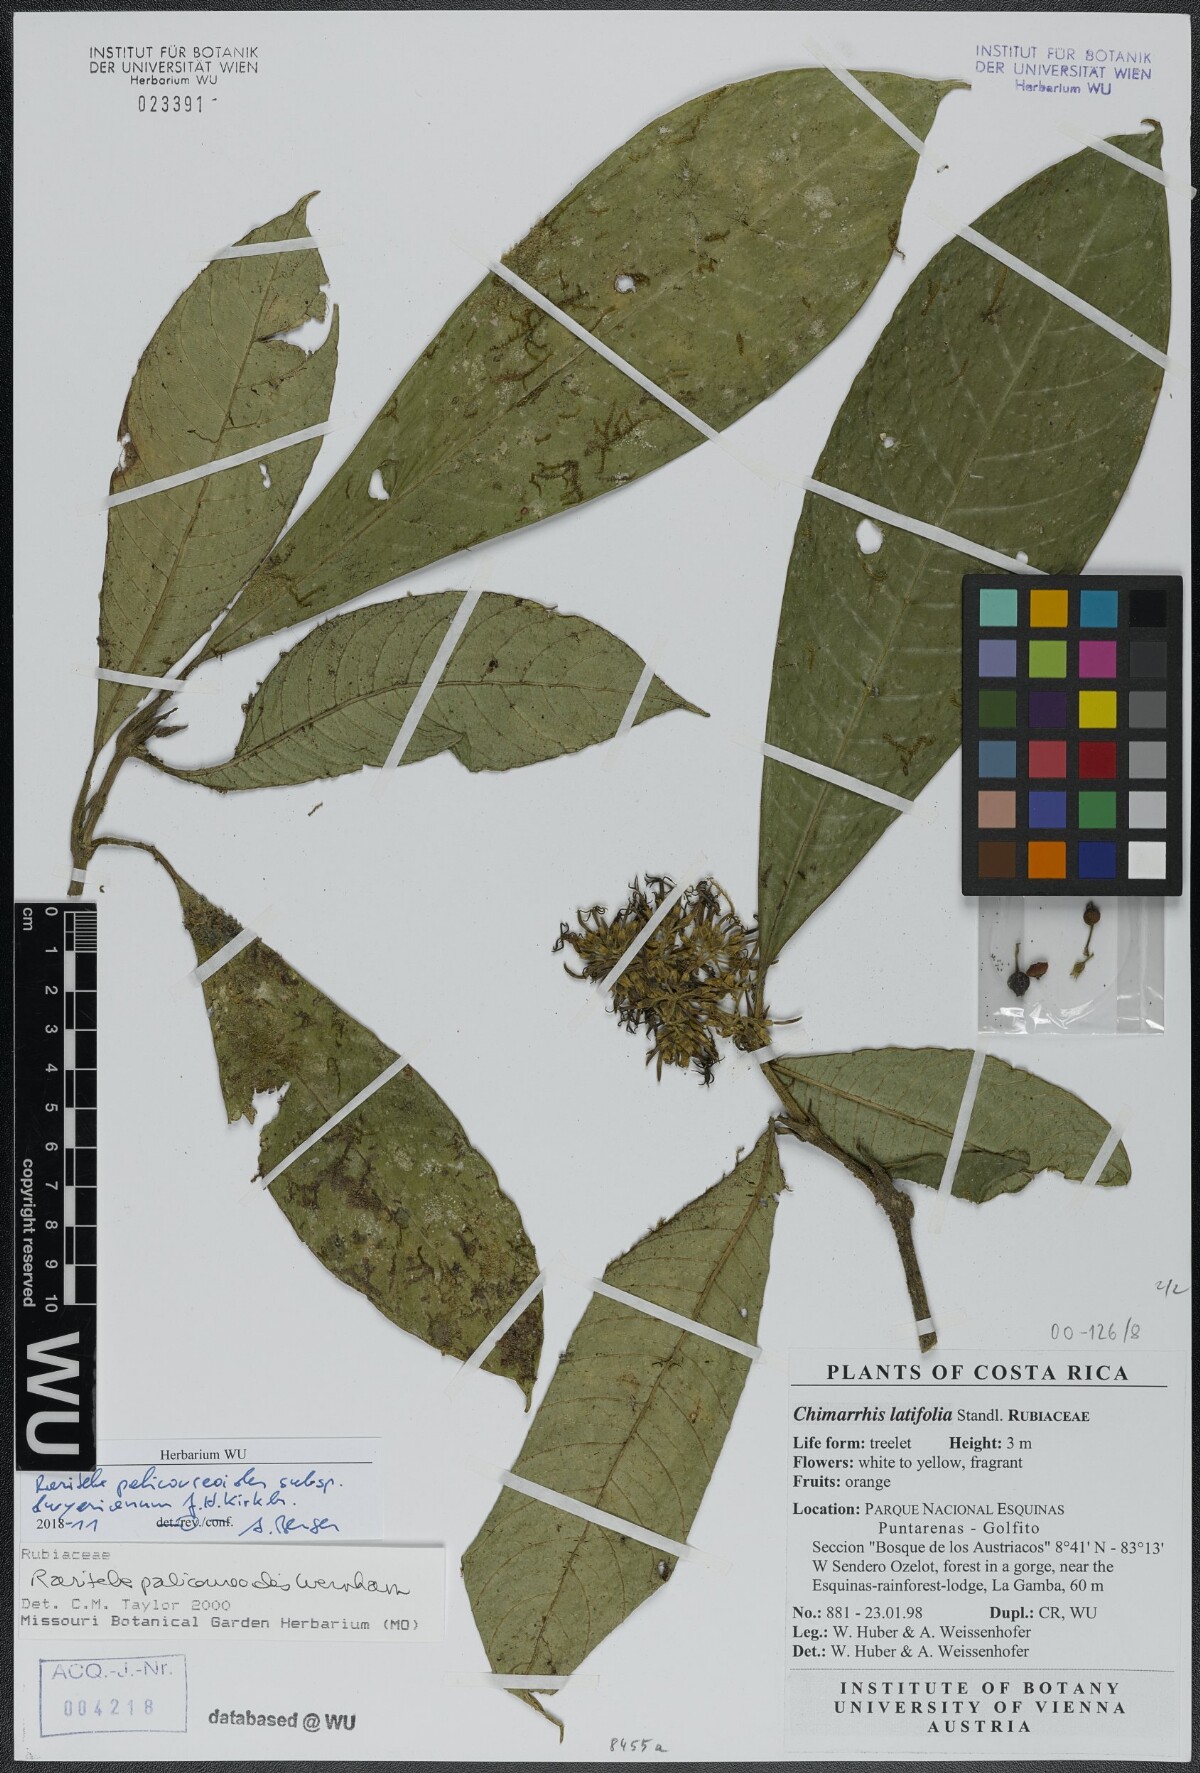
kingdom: Plantae
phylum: Tracheophyta
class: Magnoliopsida
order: Gentianales
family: Rubiaceae
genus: Raritebe
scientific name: Raritebe palicoureoides
